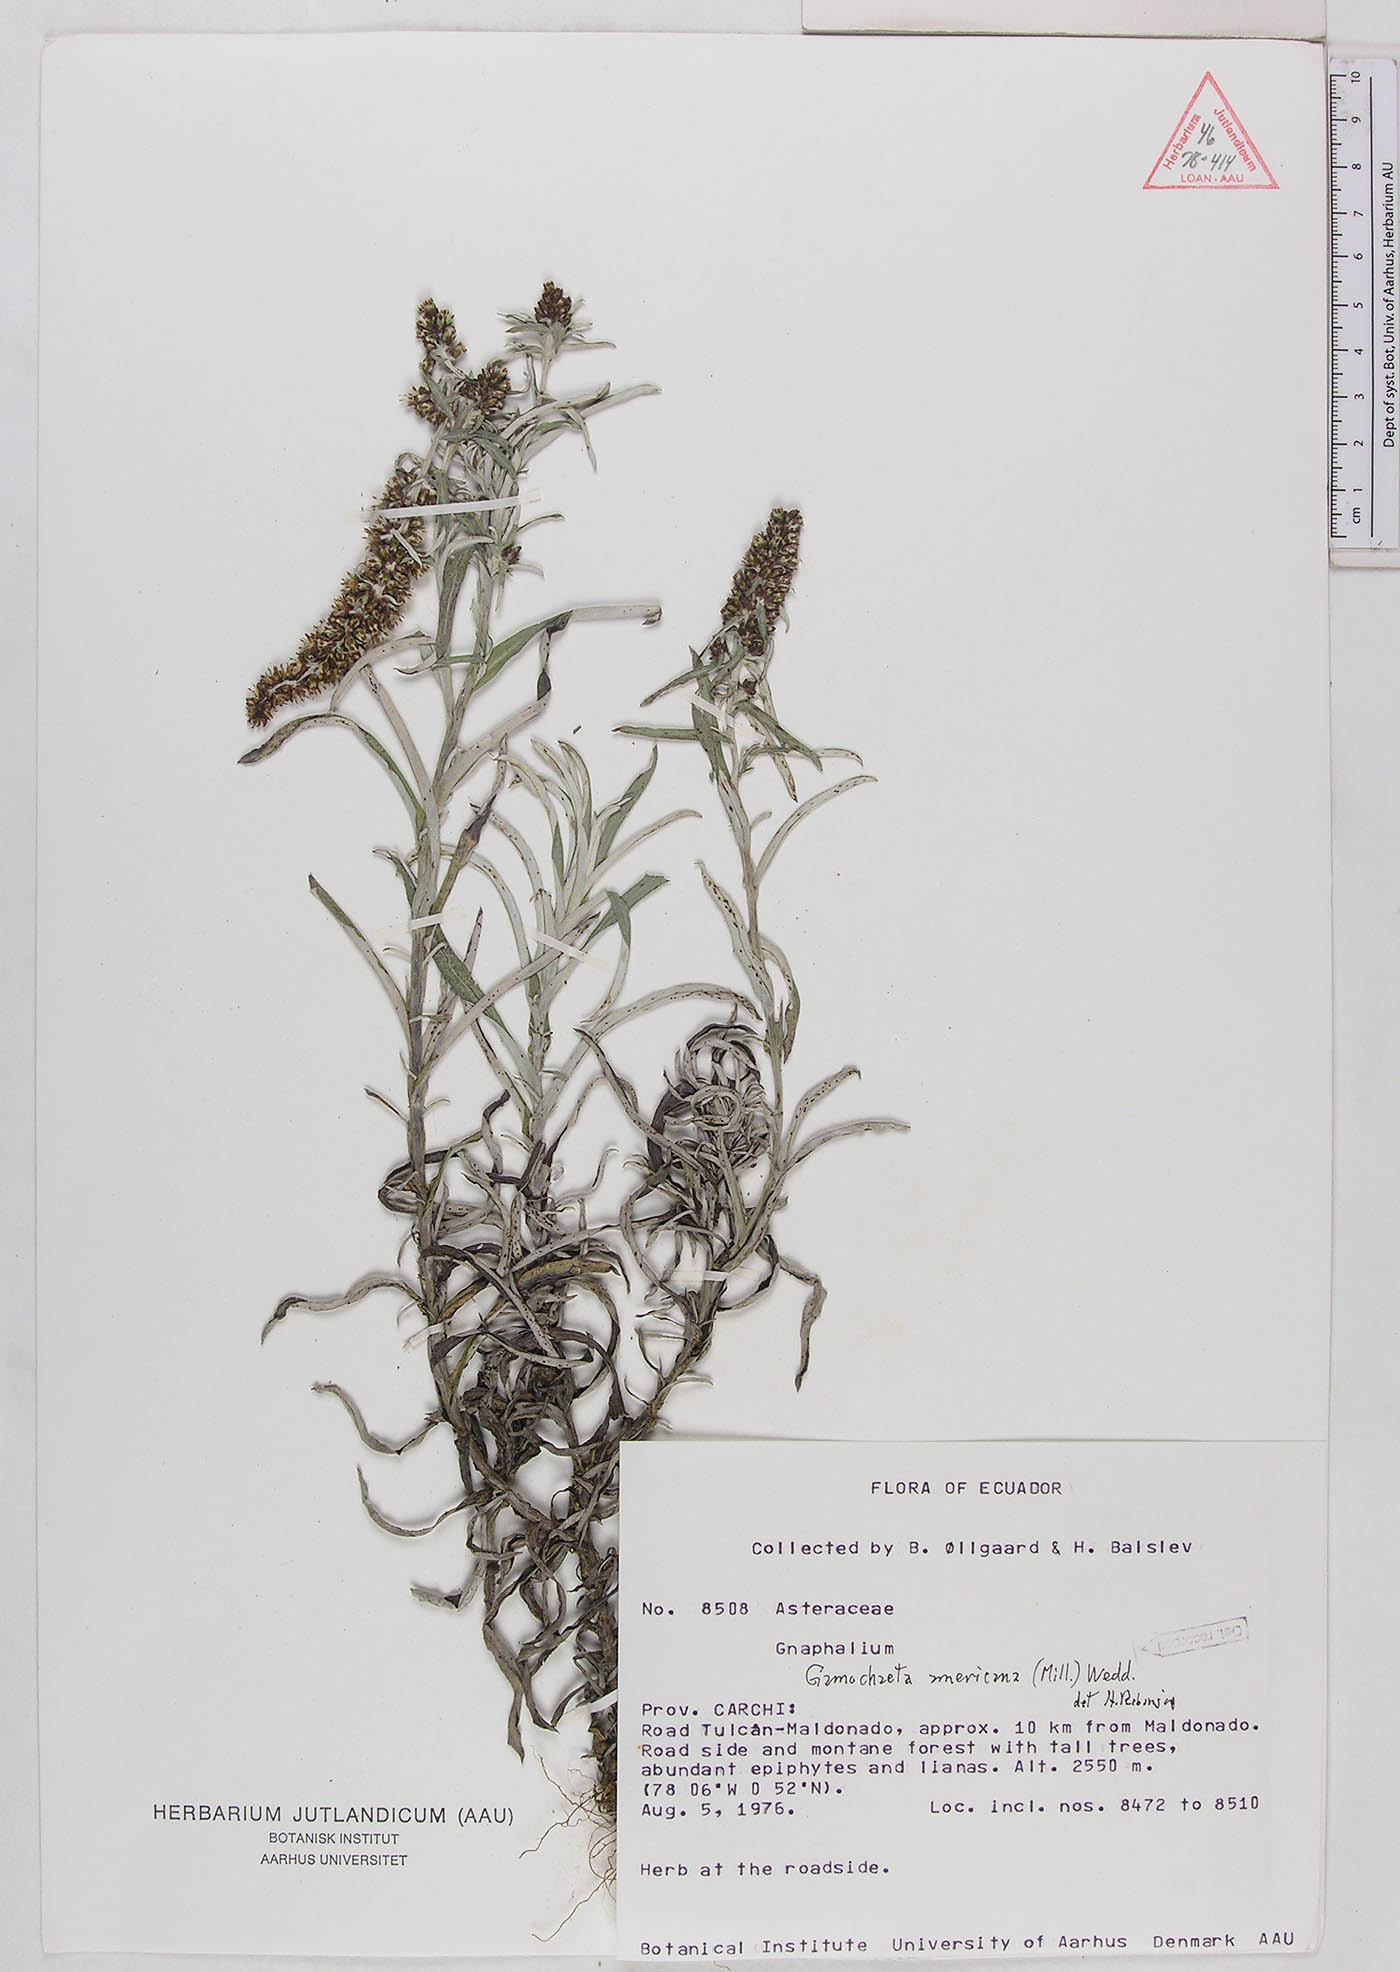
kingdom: Plantae
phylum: Tracheophyta
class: Magnoliopsida
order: Asterales
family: Asteraceae
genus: Gamochaeta
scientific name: Gamochaeta americana
